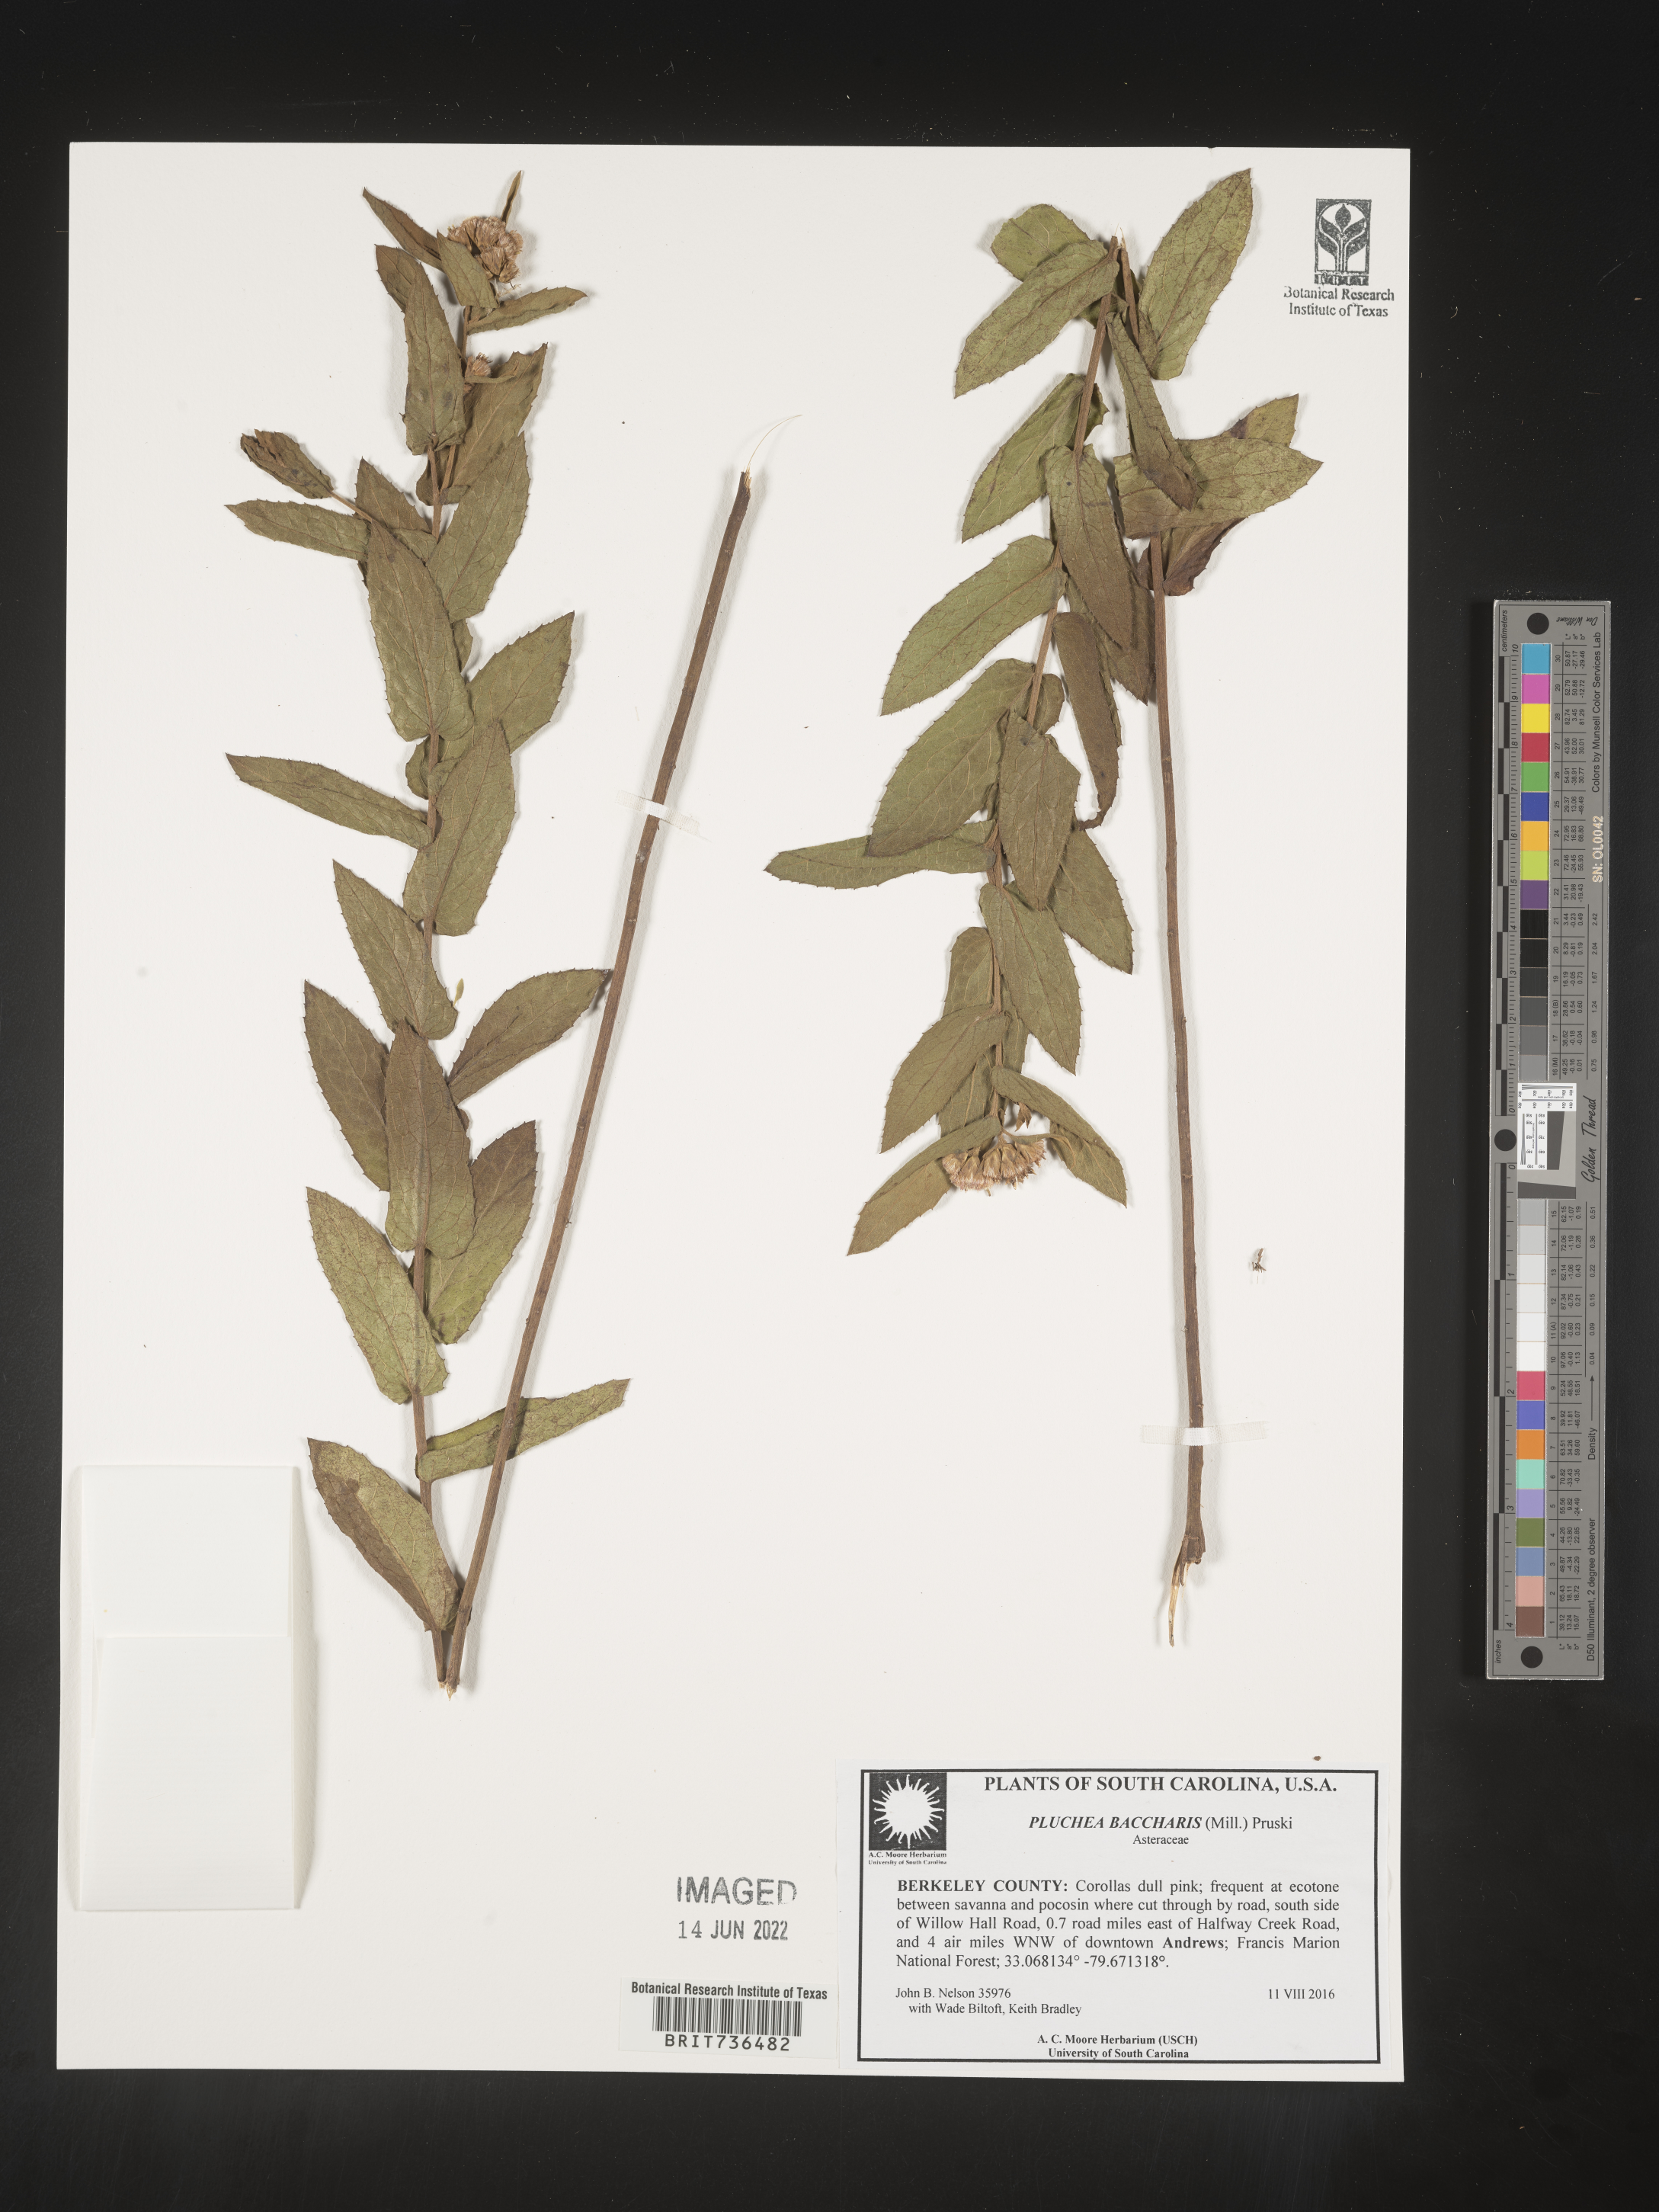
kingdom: Plantae
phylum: Tracheophyta
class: Magnoliopsida
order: Asterales
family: Asteraceae
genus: Pluchea
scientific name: Pluchea baccharis
